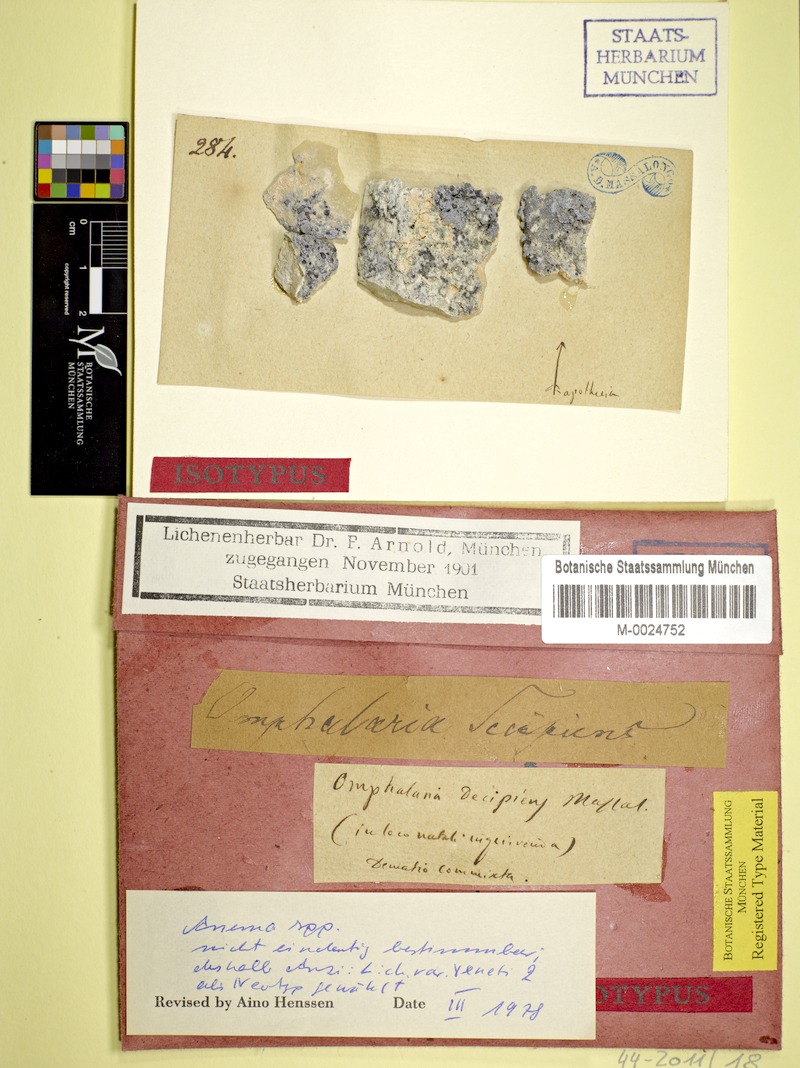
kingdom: Fungi
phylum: Ascomycota
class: Lichinomycetes
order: Lichinales
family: Lichinaceae
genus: Anema
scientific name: Anema decipiens
